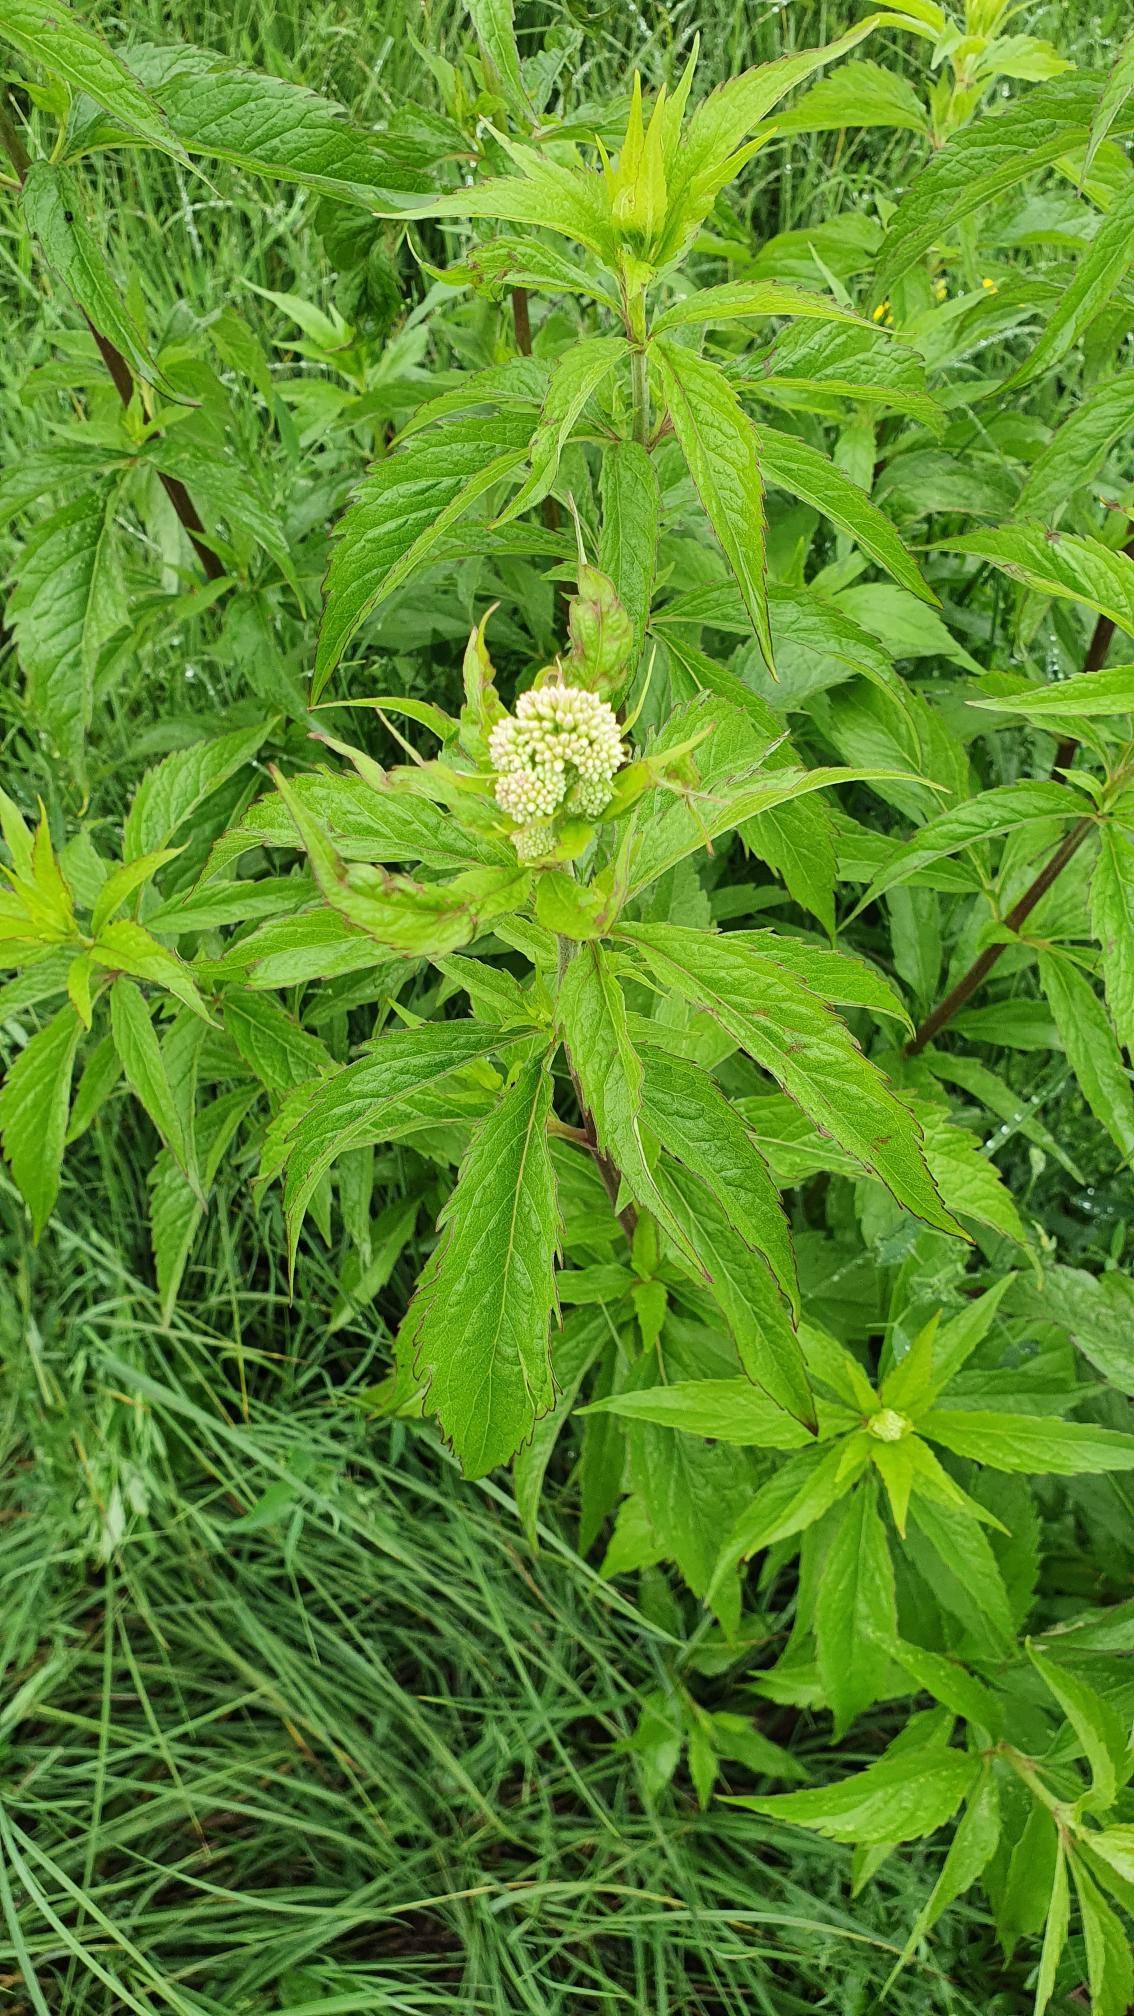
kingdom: Plantae
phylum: Tracheophyta
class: Magnoliopsida
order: Asterales
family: Asteraceae
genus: Eupatorium
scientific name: Eupatorium cannabinum
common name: Hjortetrøst
